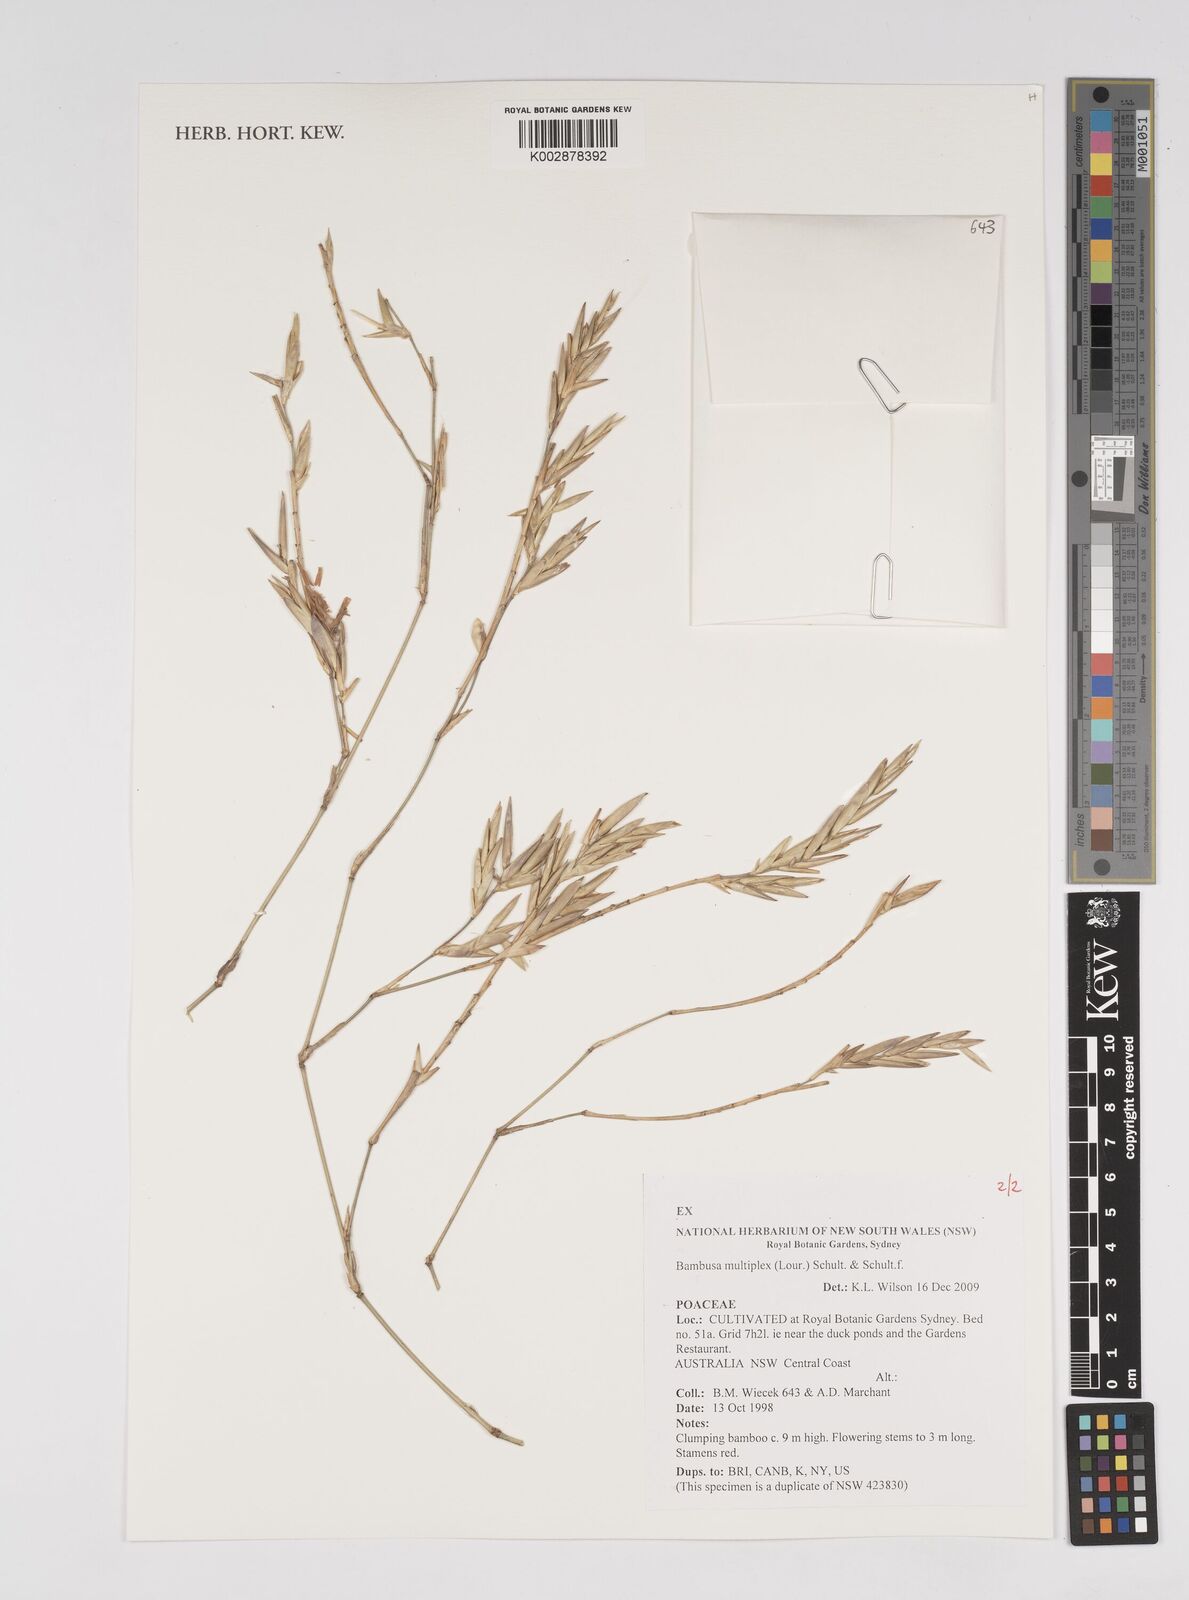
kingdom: Plantae
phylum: Tracheophyta
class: Liliopsida
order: Poales
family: Poaceae
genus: Bambusa
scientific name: Bambusa multiplex
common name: Hedge bamboo
